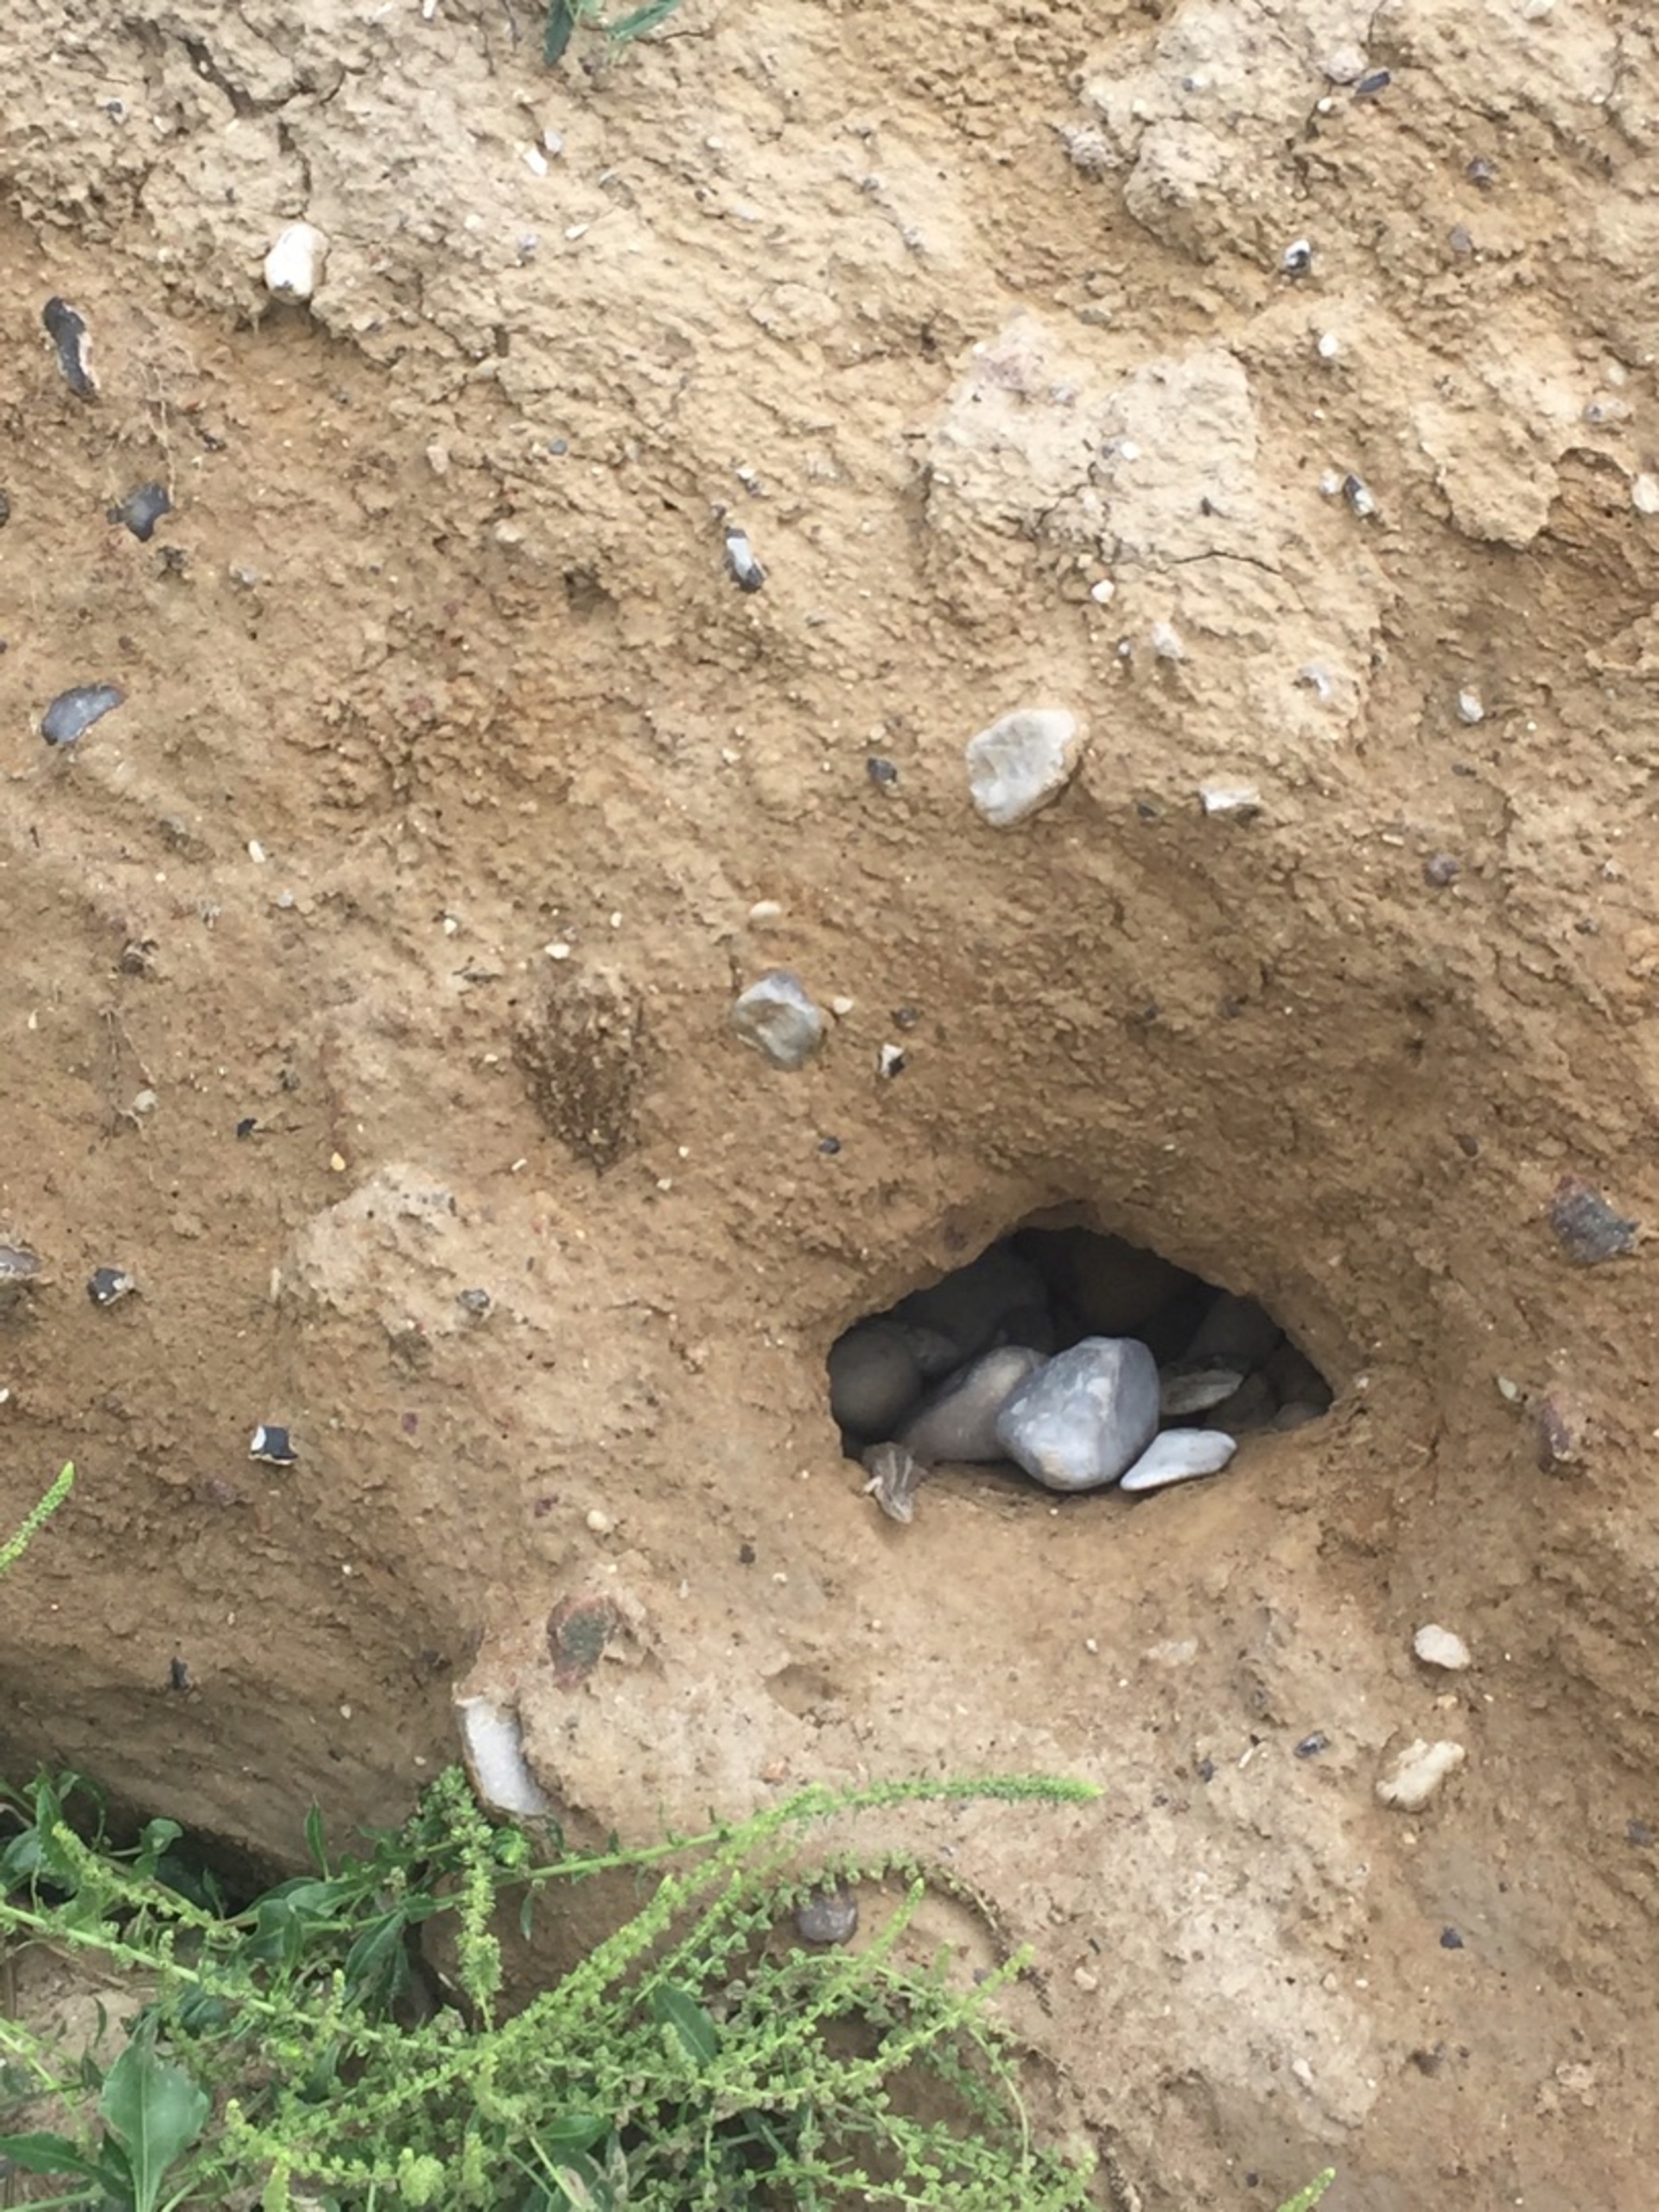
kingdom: Animalia
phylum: Chordata
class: Squamata
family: Lacertidae
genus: Lacerta
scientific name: Lacerta agilis
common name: Markfirben
